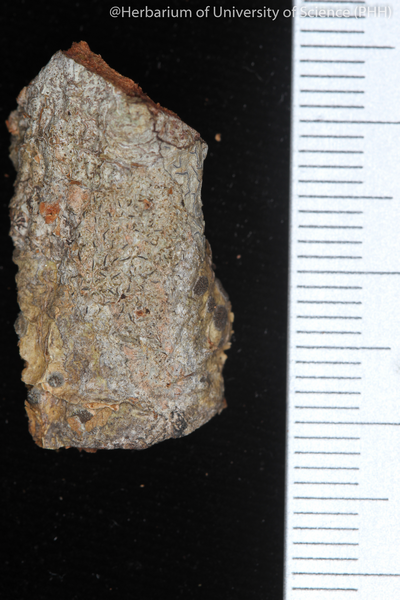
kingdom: Fungi
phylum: Ascomycota
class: Lecanoromycetes
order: Ostropales
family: Graphidaceae
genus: Glyphis
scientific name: Glyphis cicatricosa
